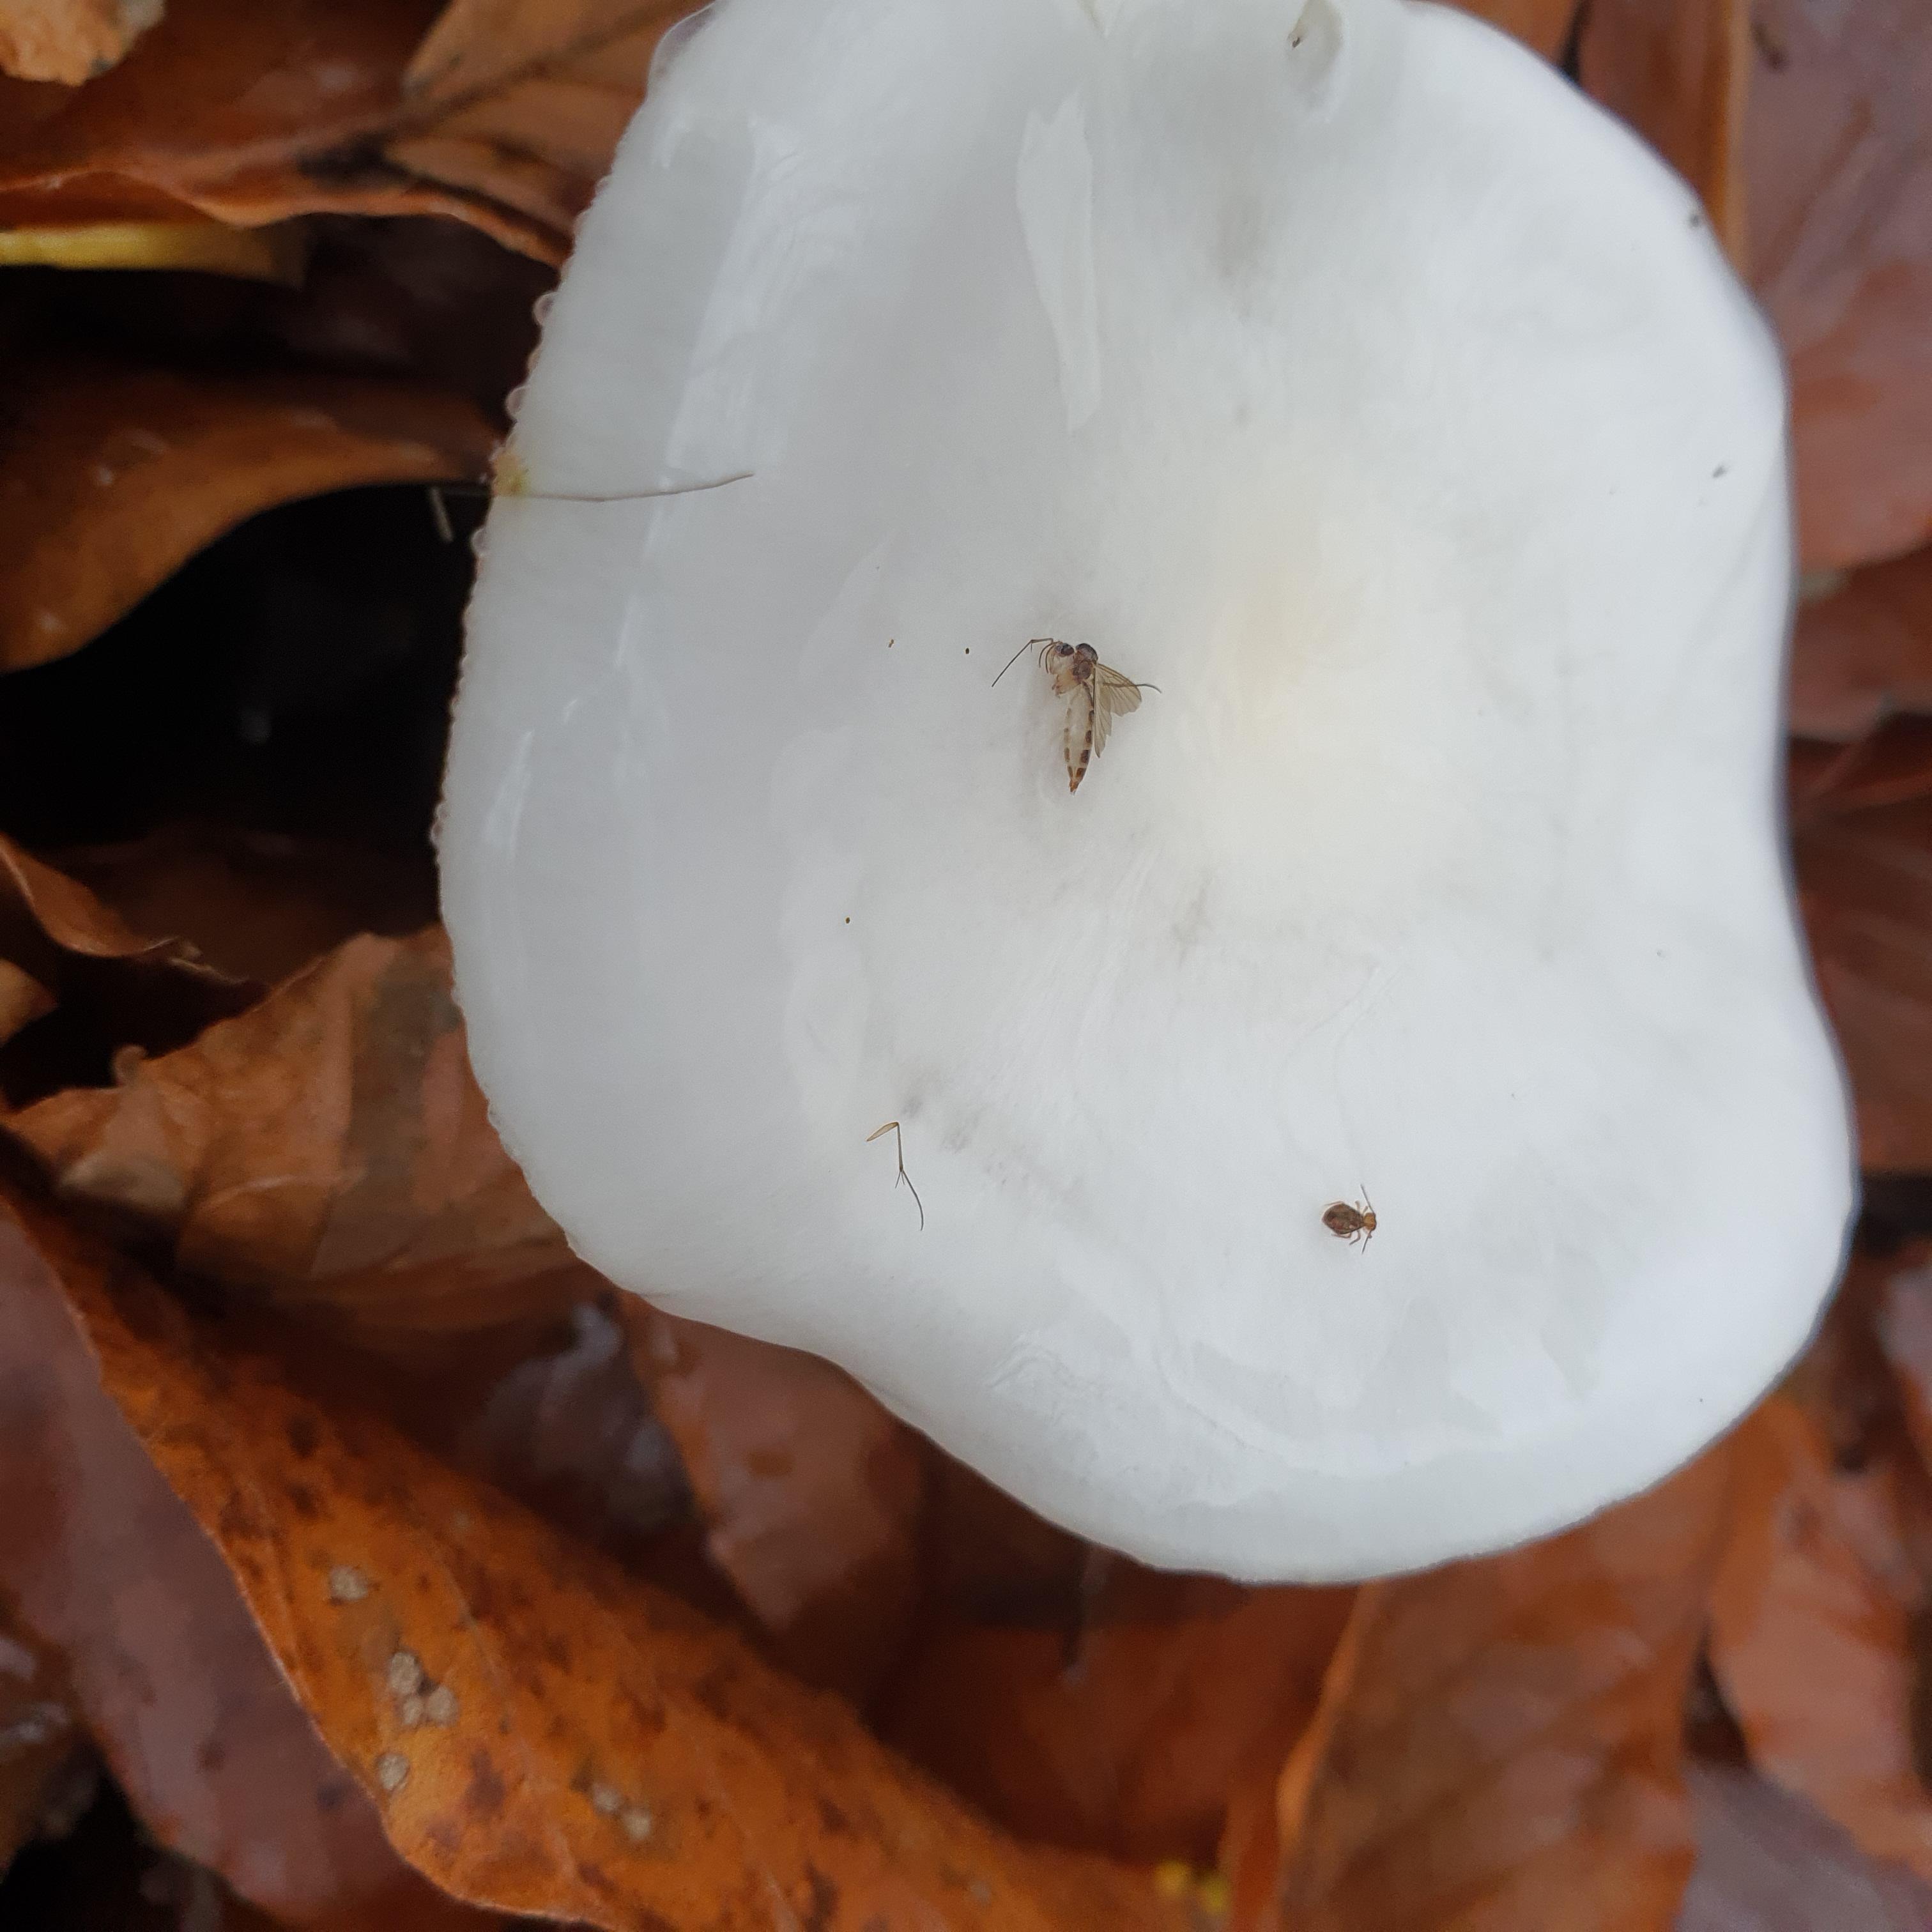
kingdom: Fungi
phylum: Basidiomycota
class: Agaricomycetes
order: Agaricales
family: Hygrophoraceae
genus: Hygrophorus
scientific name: Hygrophorus eburneus
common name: elfenbens-sneglehat
